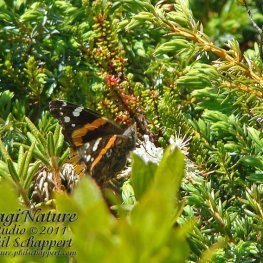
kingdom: Animalia
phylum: Arthropoda
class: Insecta
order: Lepidoptera
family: Nymphalidae
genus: Vanessa
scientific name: Vanessa atalanta
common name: Red Admiral
